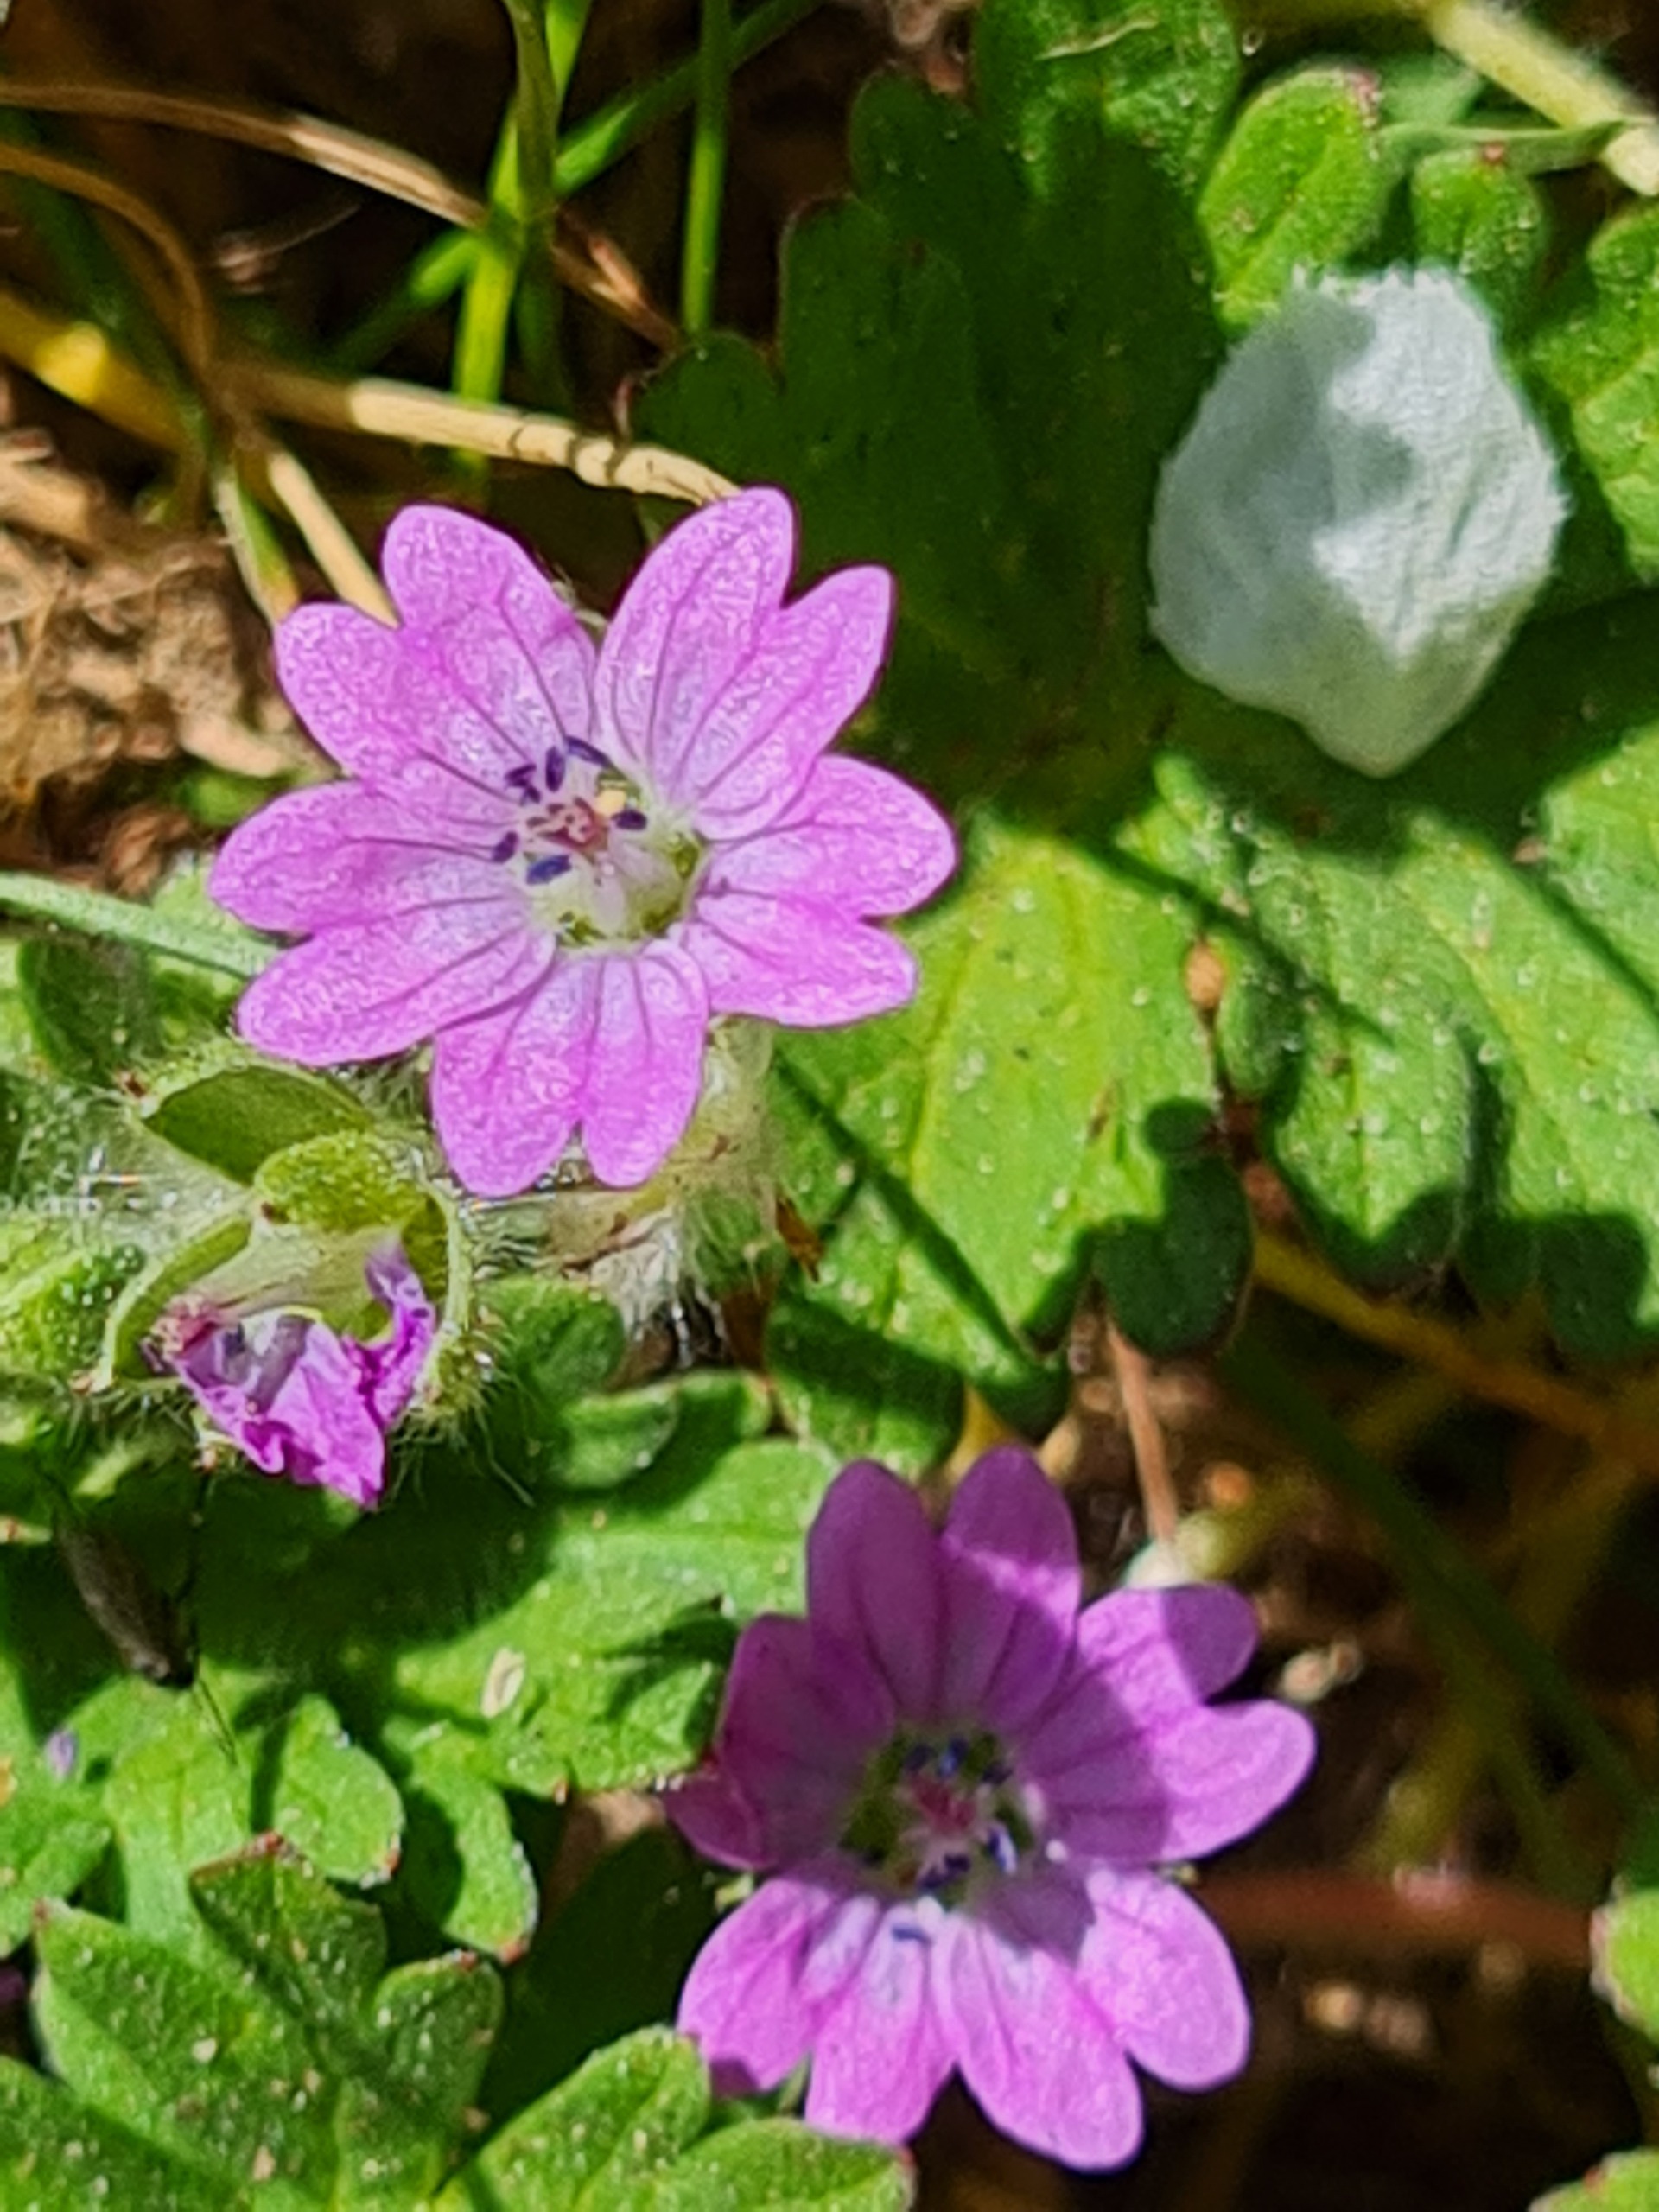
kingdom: Plantae
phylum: Tracheophyta
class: Magnoliopsida
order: Geraniales
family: Geraniaceae
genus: Geranium
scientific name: Geranium molle
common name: Blød storkenæb
